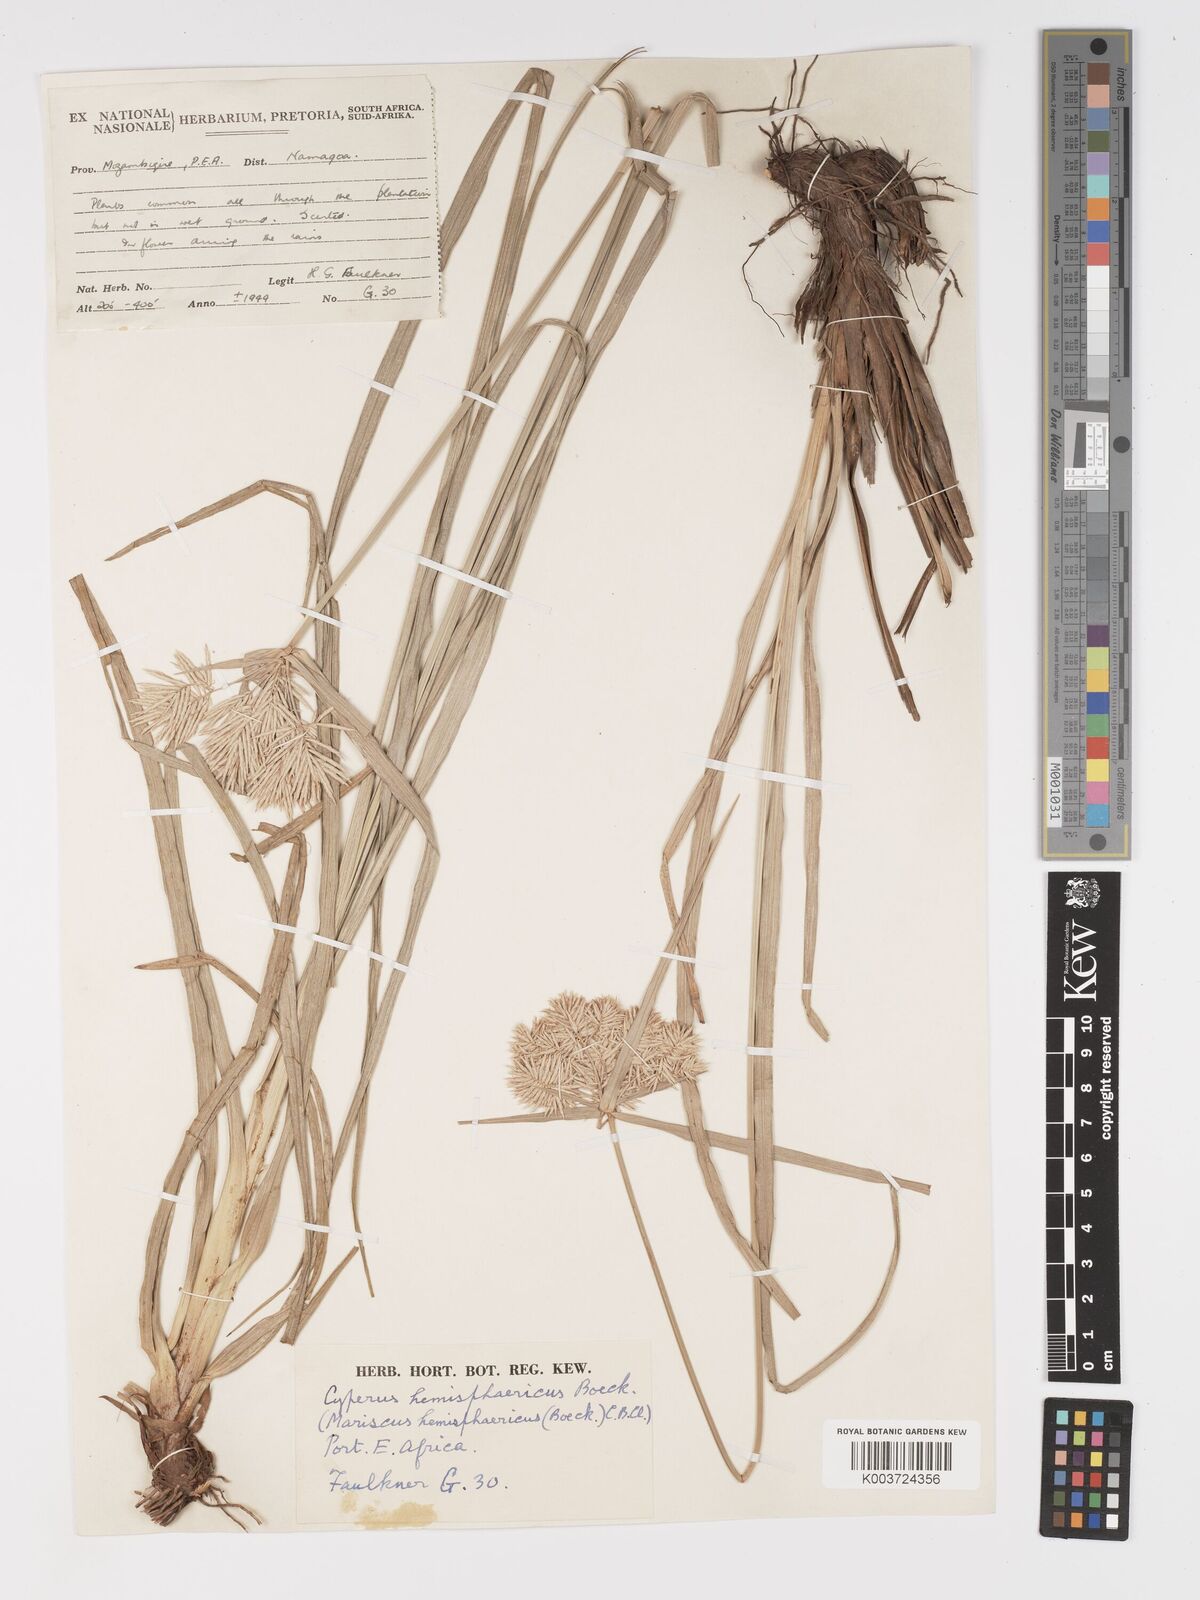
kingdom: Plantae
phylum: Tracheophyta
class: Liliopsida
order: Poales
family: Cyperaceae
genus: Cyperus
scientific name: Cyperus hemisphaericus
